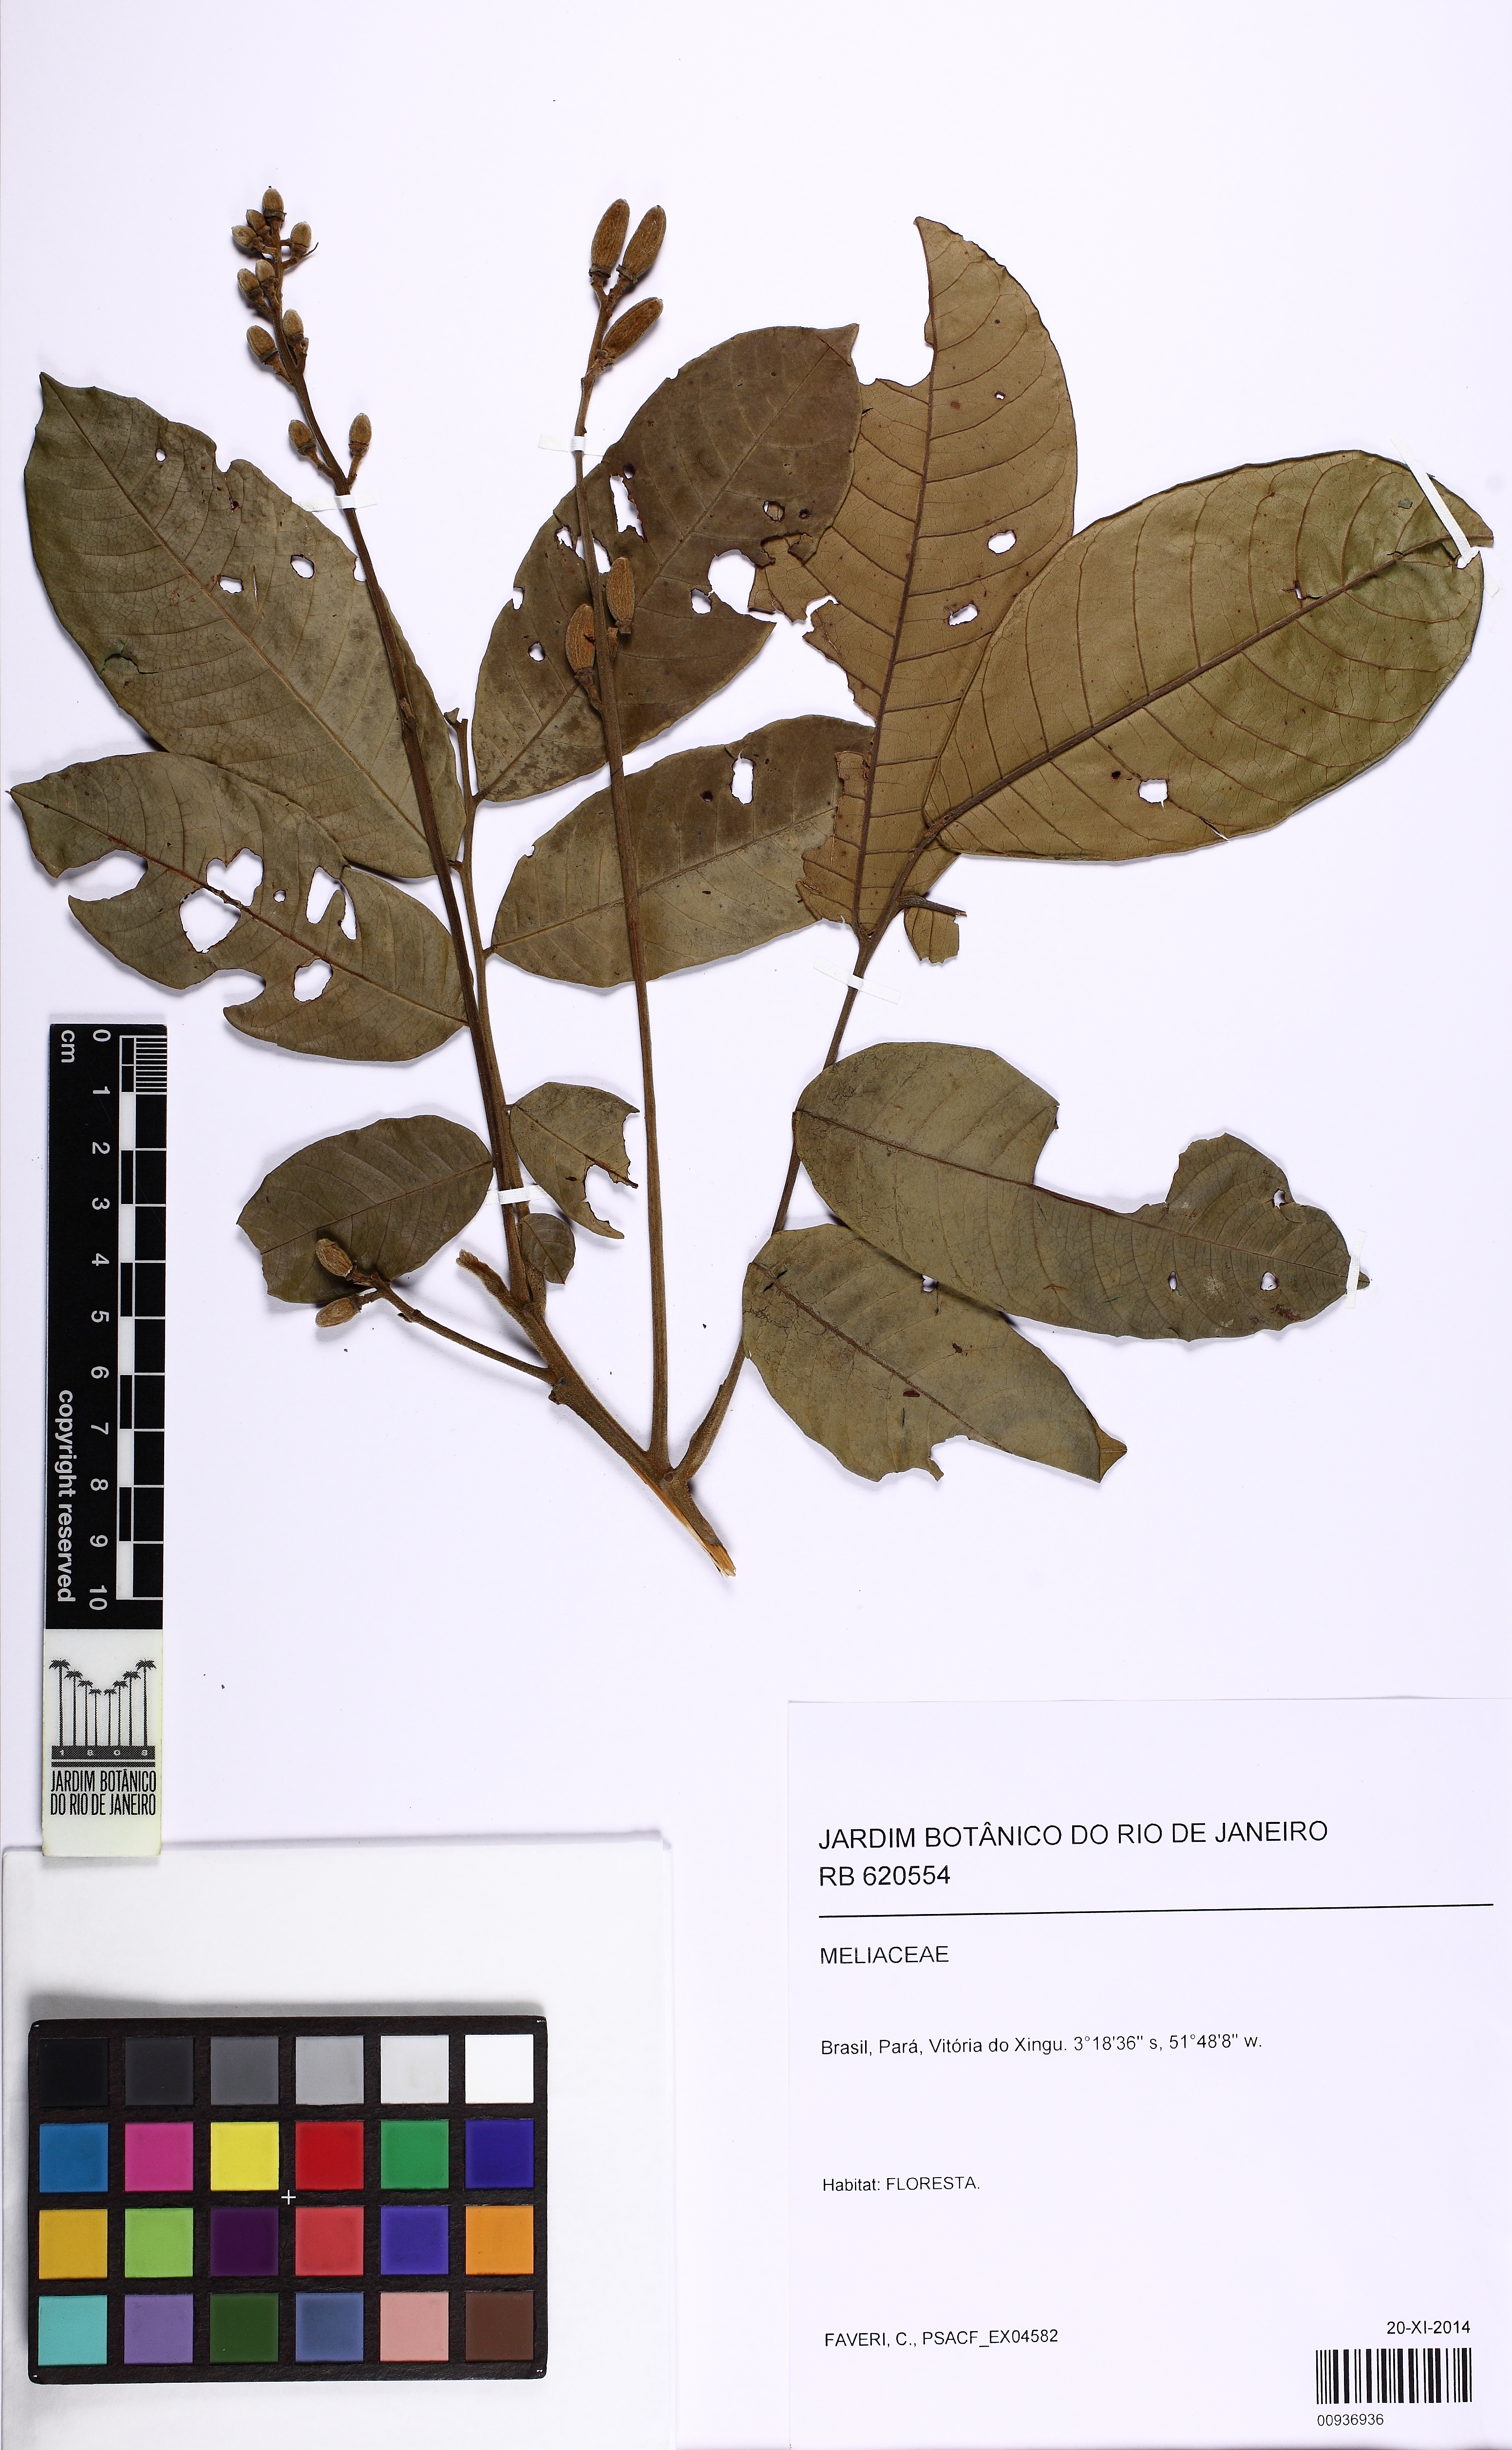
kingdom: Plantae
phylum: Tracheophyta
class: Magnoliopsida
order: Sapindales
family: Meliaceae
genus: Trichilia
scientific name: Trichilia
